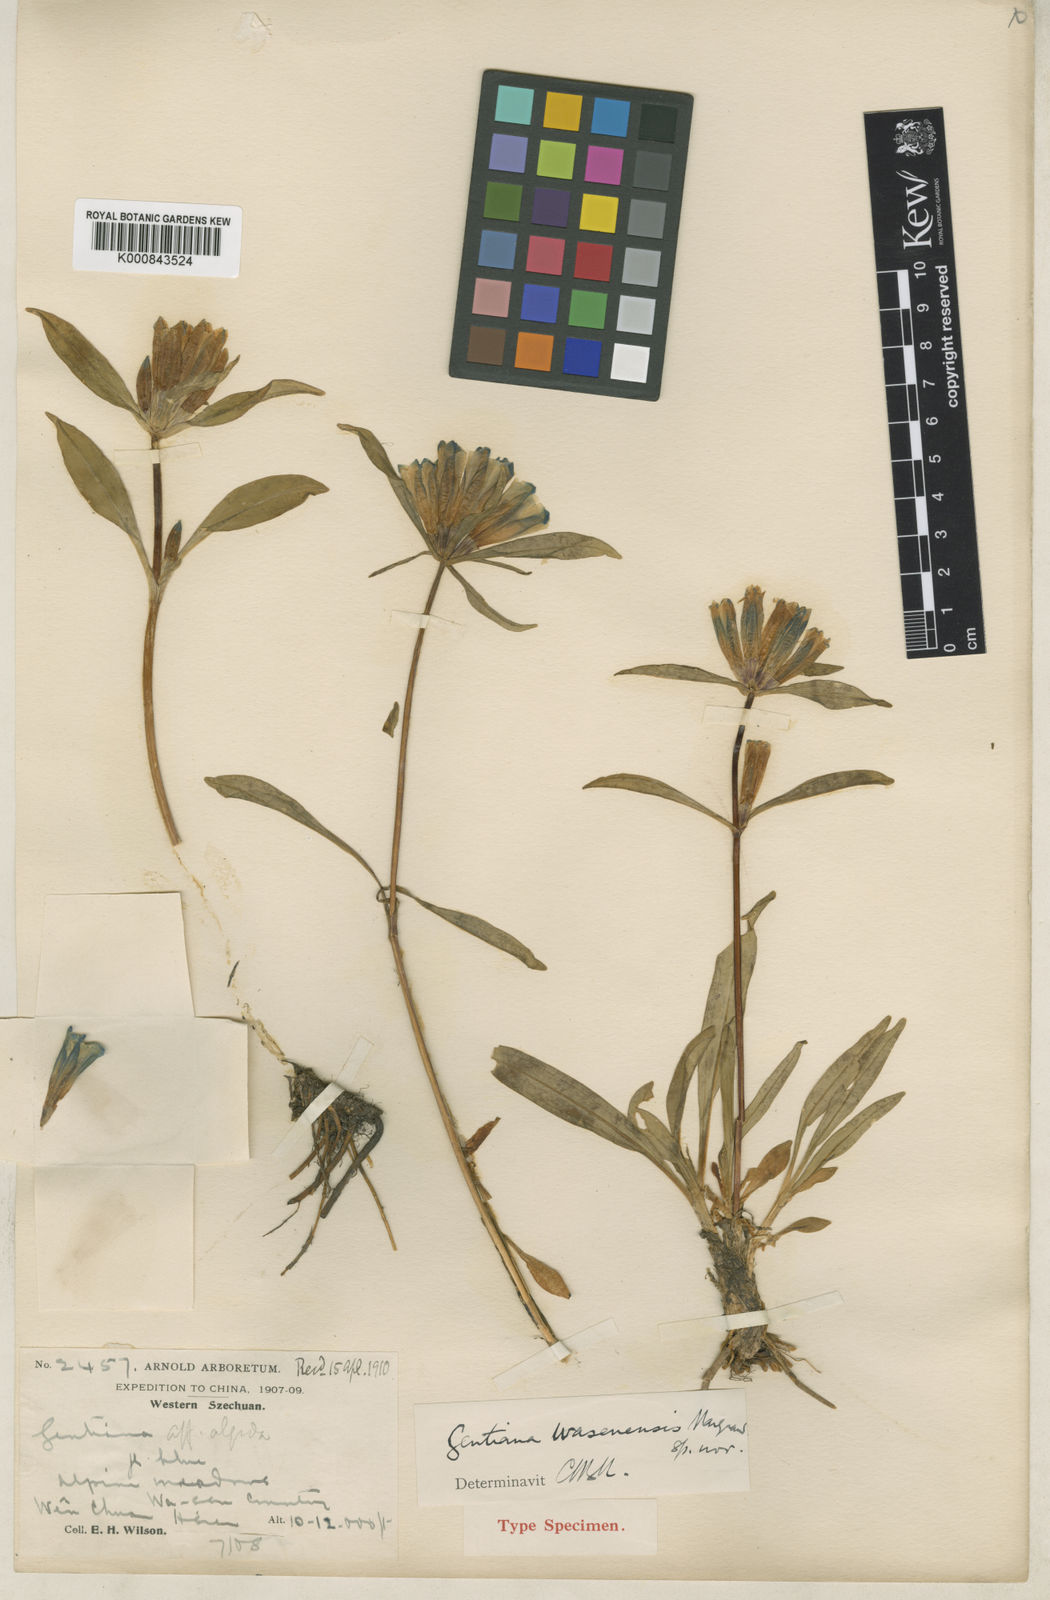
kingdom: Plantae
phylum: Tracheophyta
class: Magnoliopsida
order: Gentianales
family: Gentianaceae
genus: Gentiana
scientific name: Gentiana wasenensis
